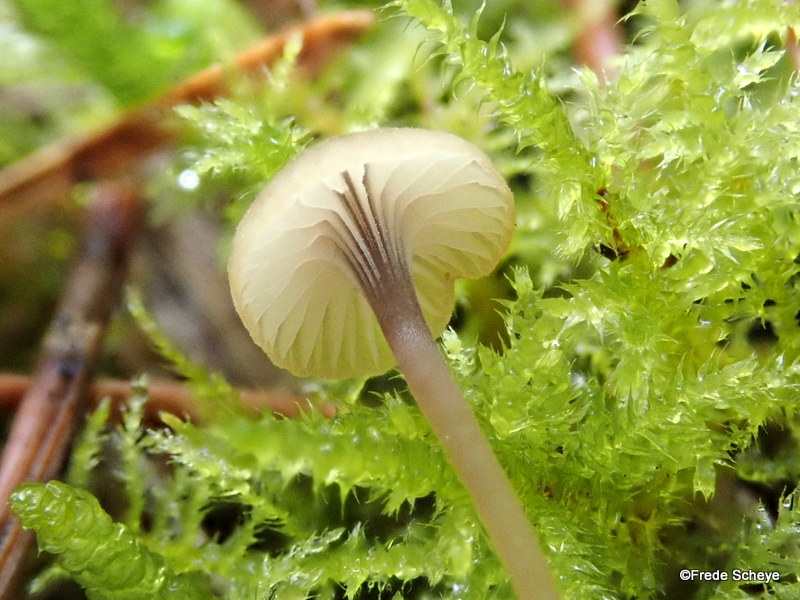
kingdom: Fungi
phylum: Basidiomycota
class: Agaricomycetes
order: Hymenochaetales
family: Rickenellaceae
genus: Rickenella
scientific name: Rickenella swartzii
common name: finstokket mosnavlehat
